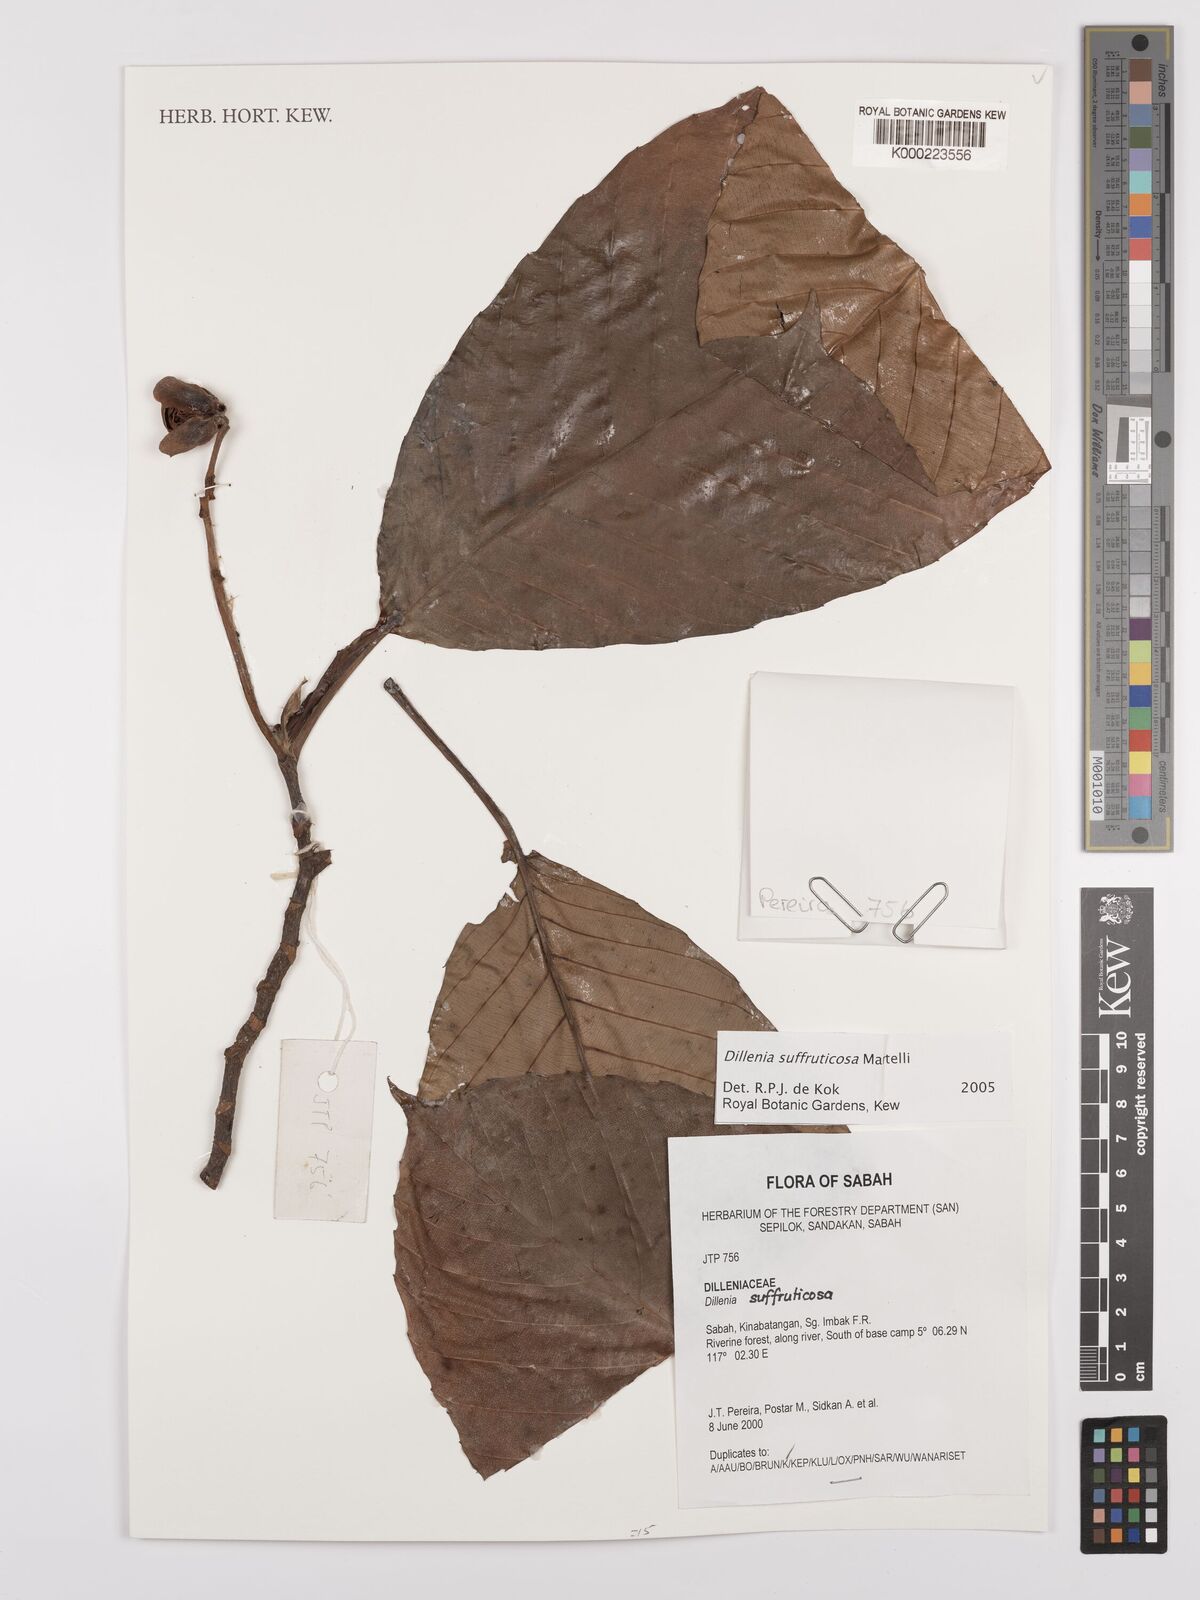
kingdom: Plantae
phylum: Tracheophyta
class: Magnoliopsida
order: Dilleniales
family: Dilleniaceae
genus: Dillenia
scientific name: Dillenia suffruticosa
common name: Shrubby dillenia
